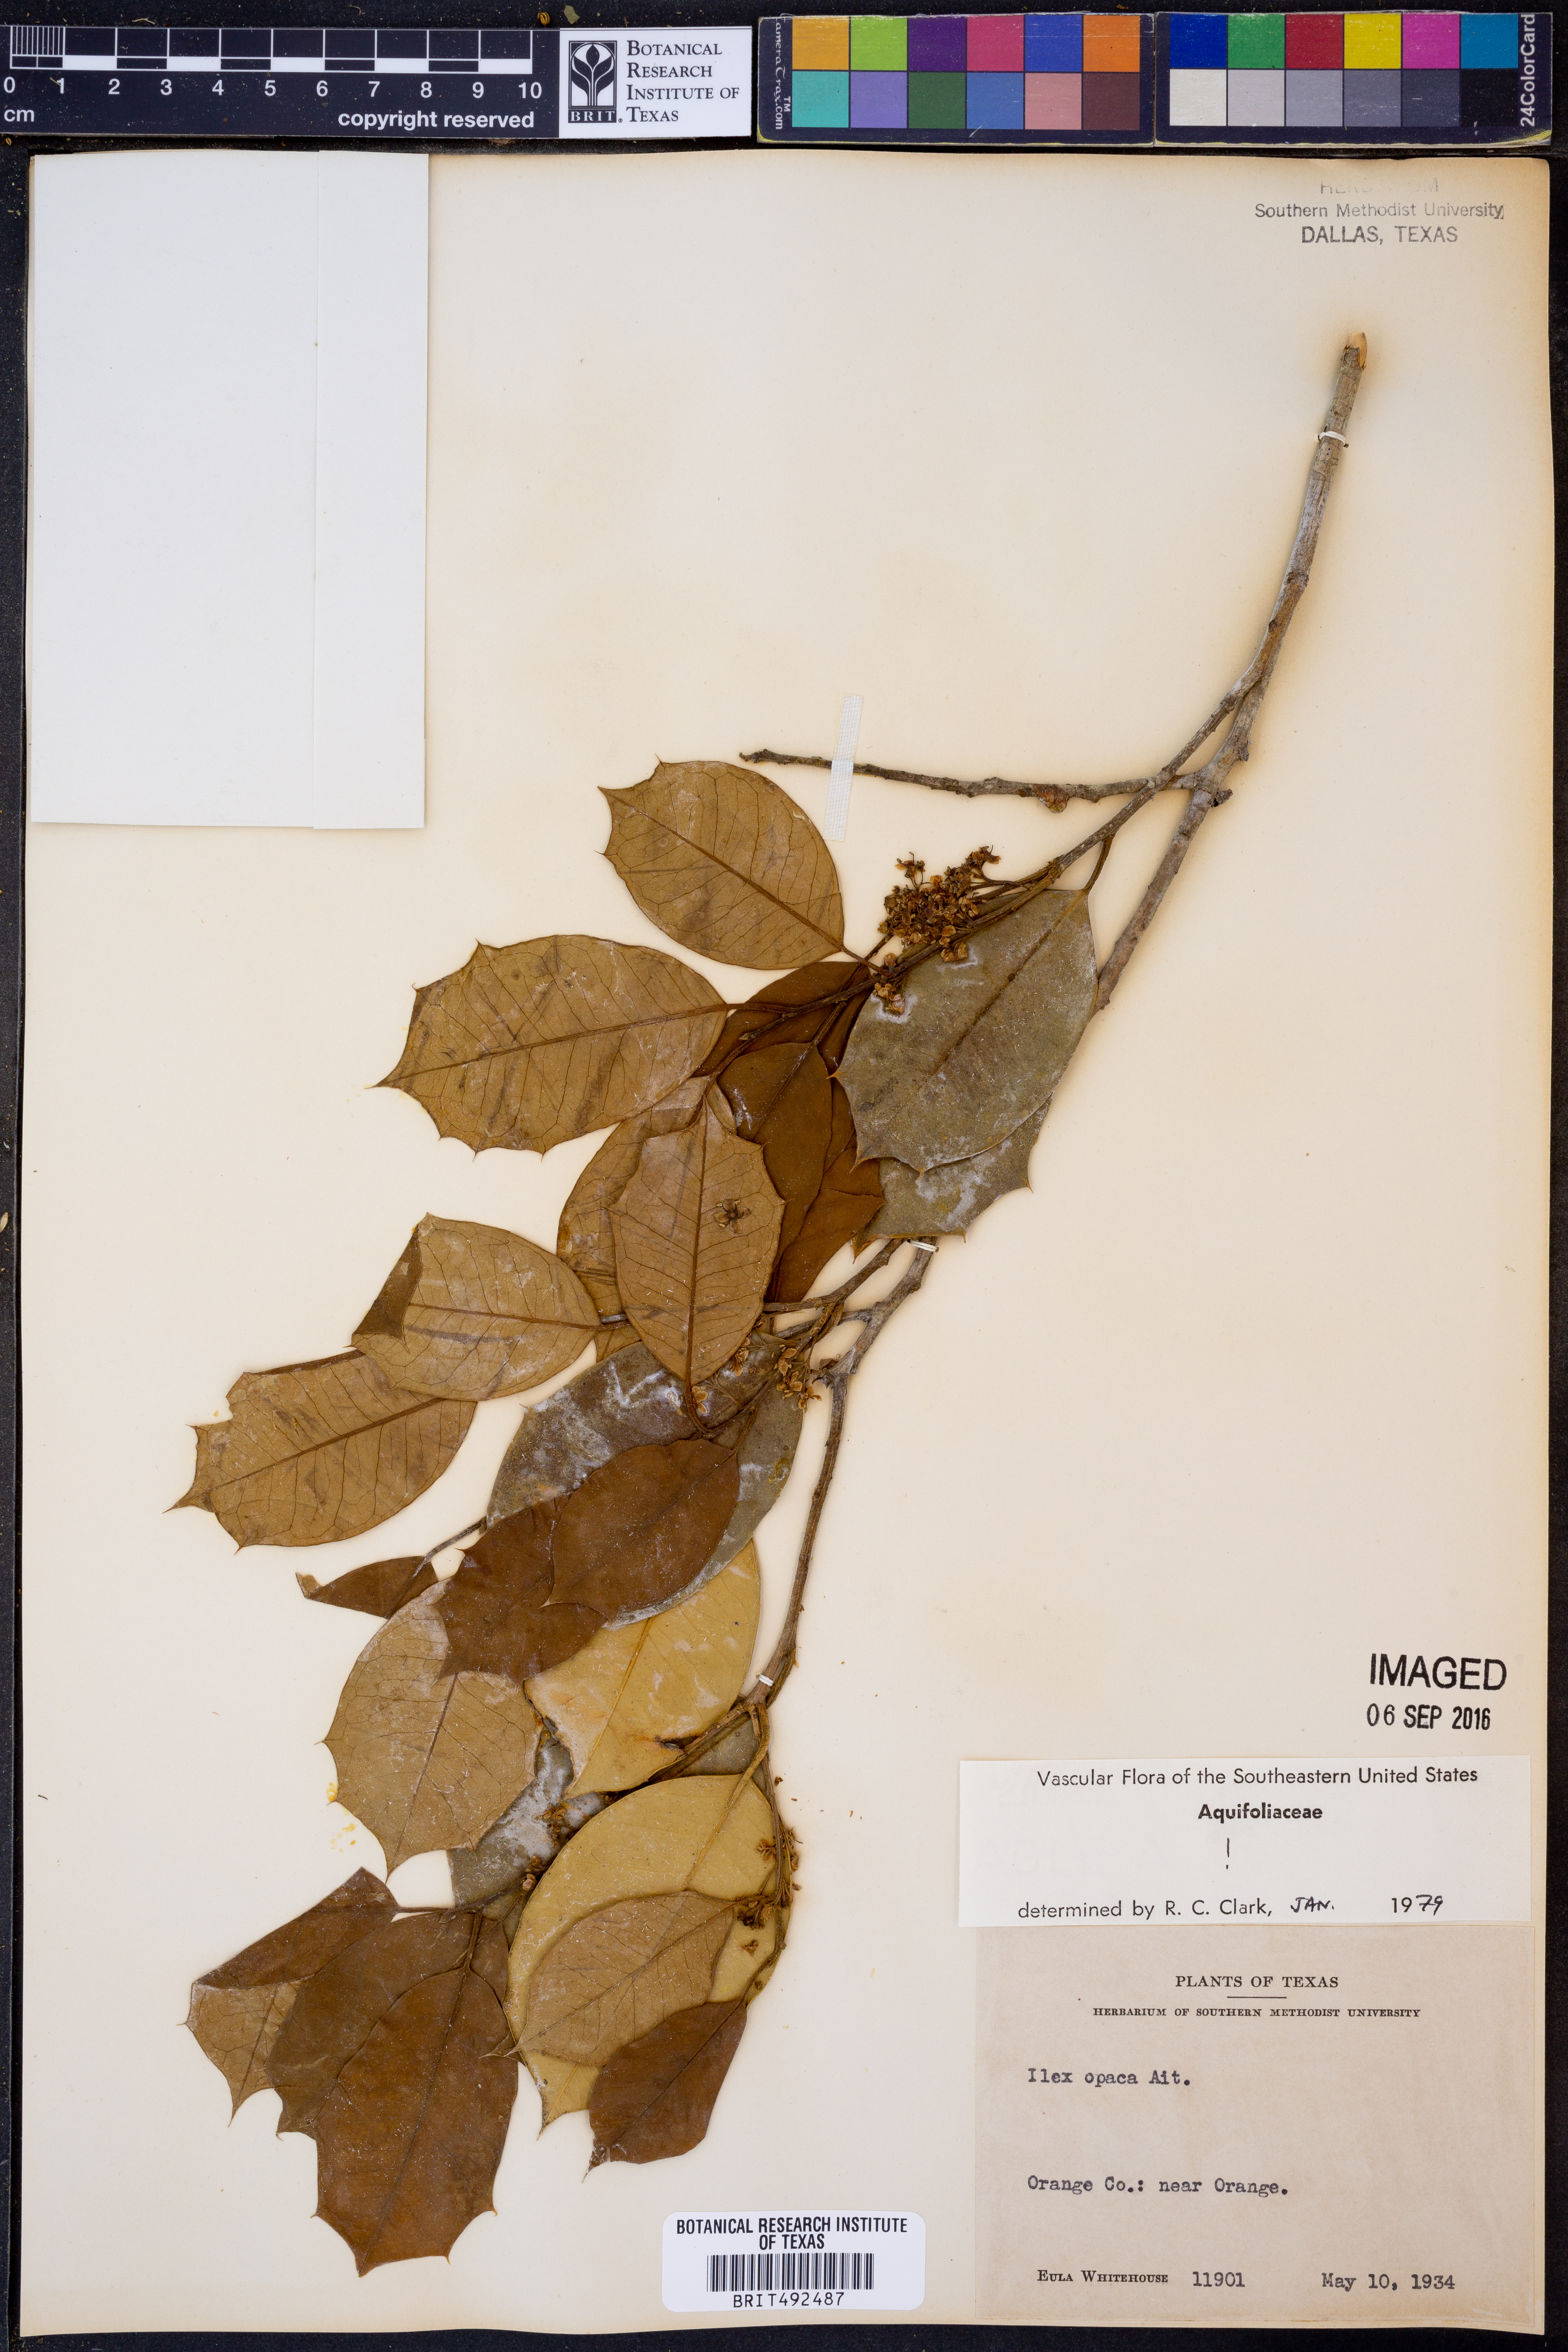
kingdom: Plantae
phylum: Tracheophyta
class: Magnoliopsida
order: Aquifoliales
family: Aquifoliaceae
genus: Ilex
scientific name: Ilex opaca
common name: American holly
